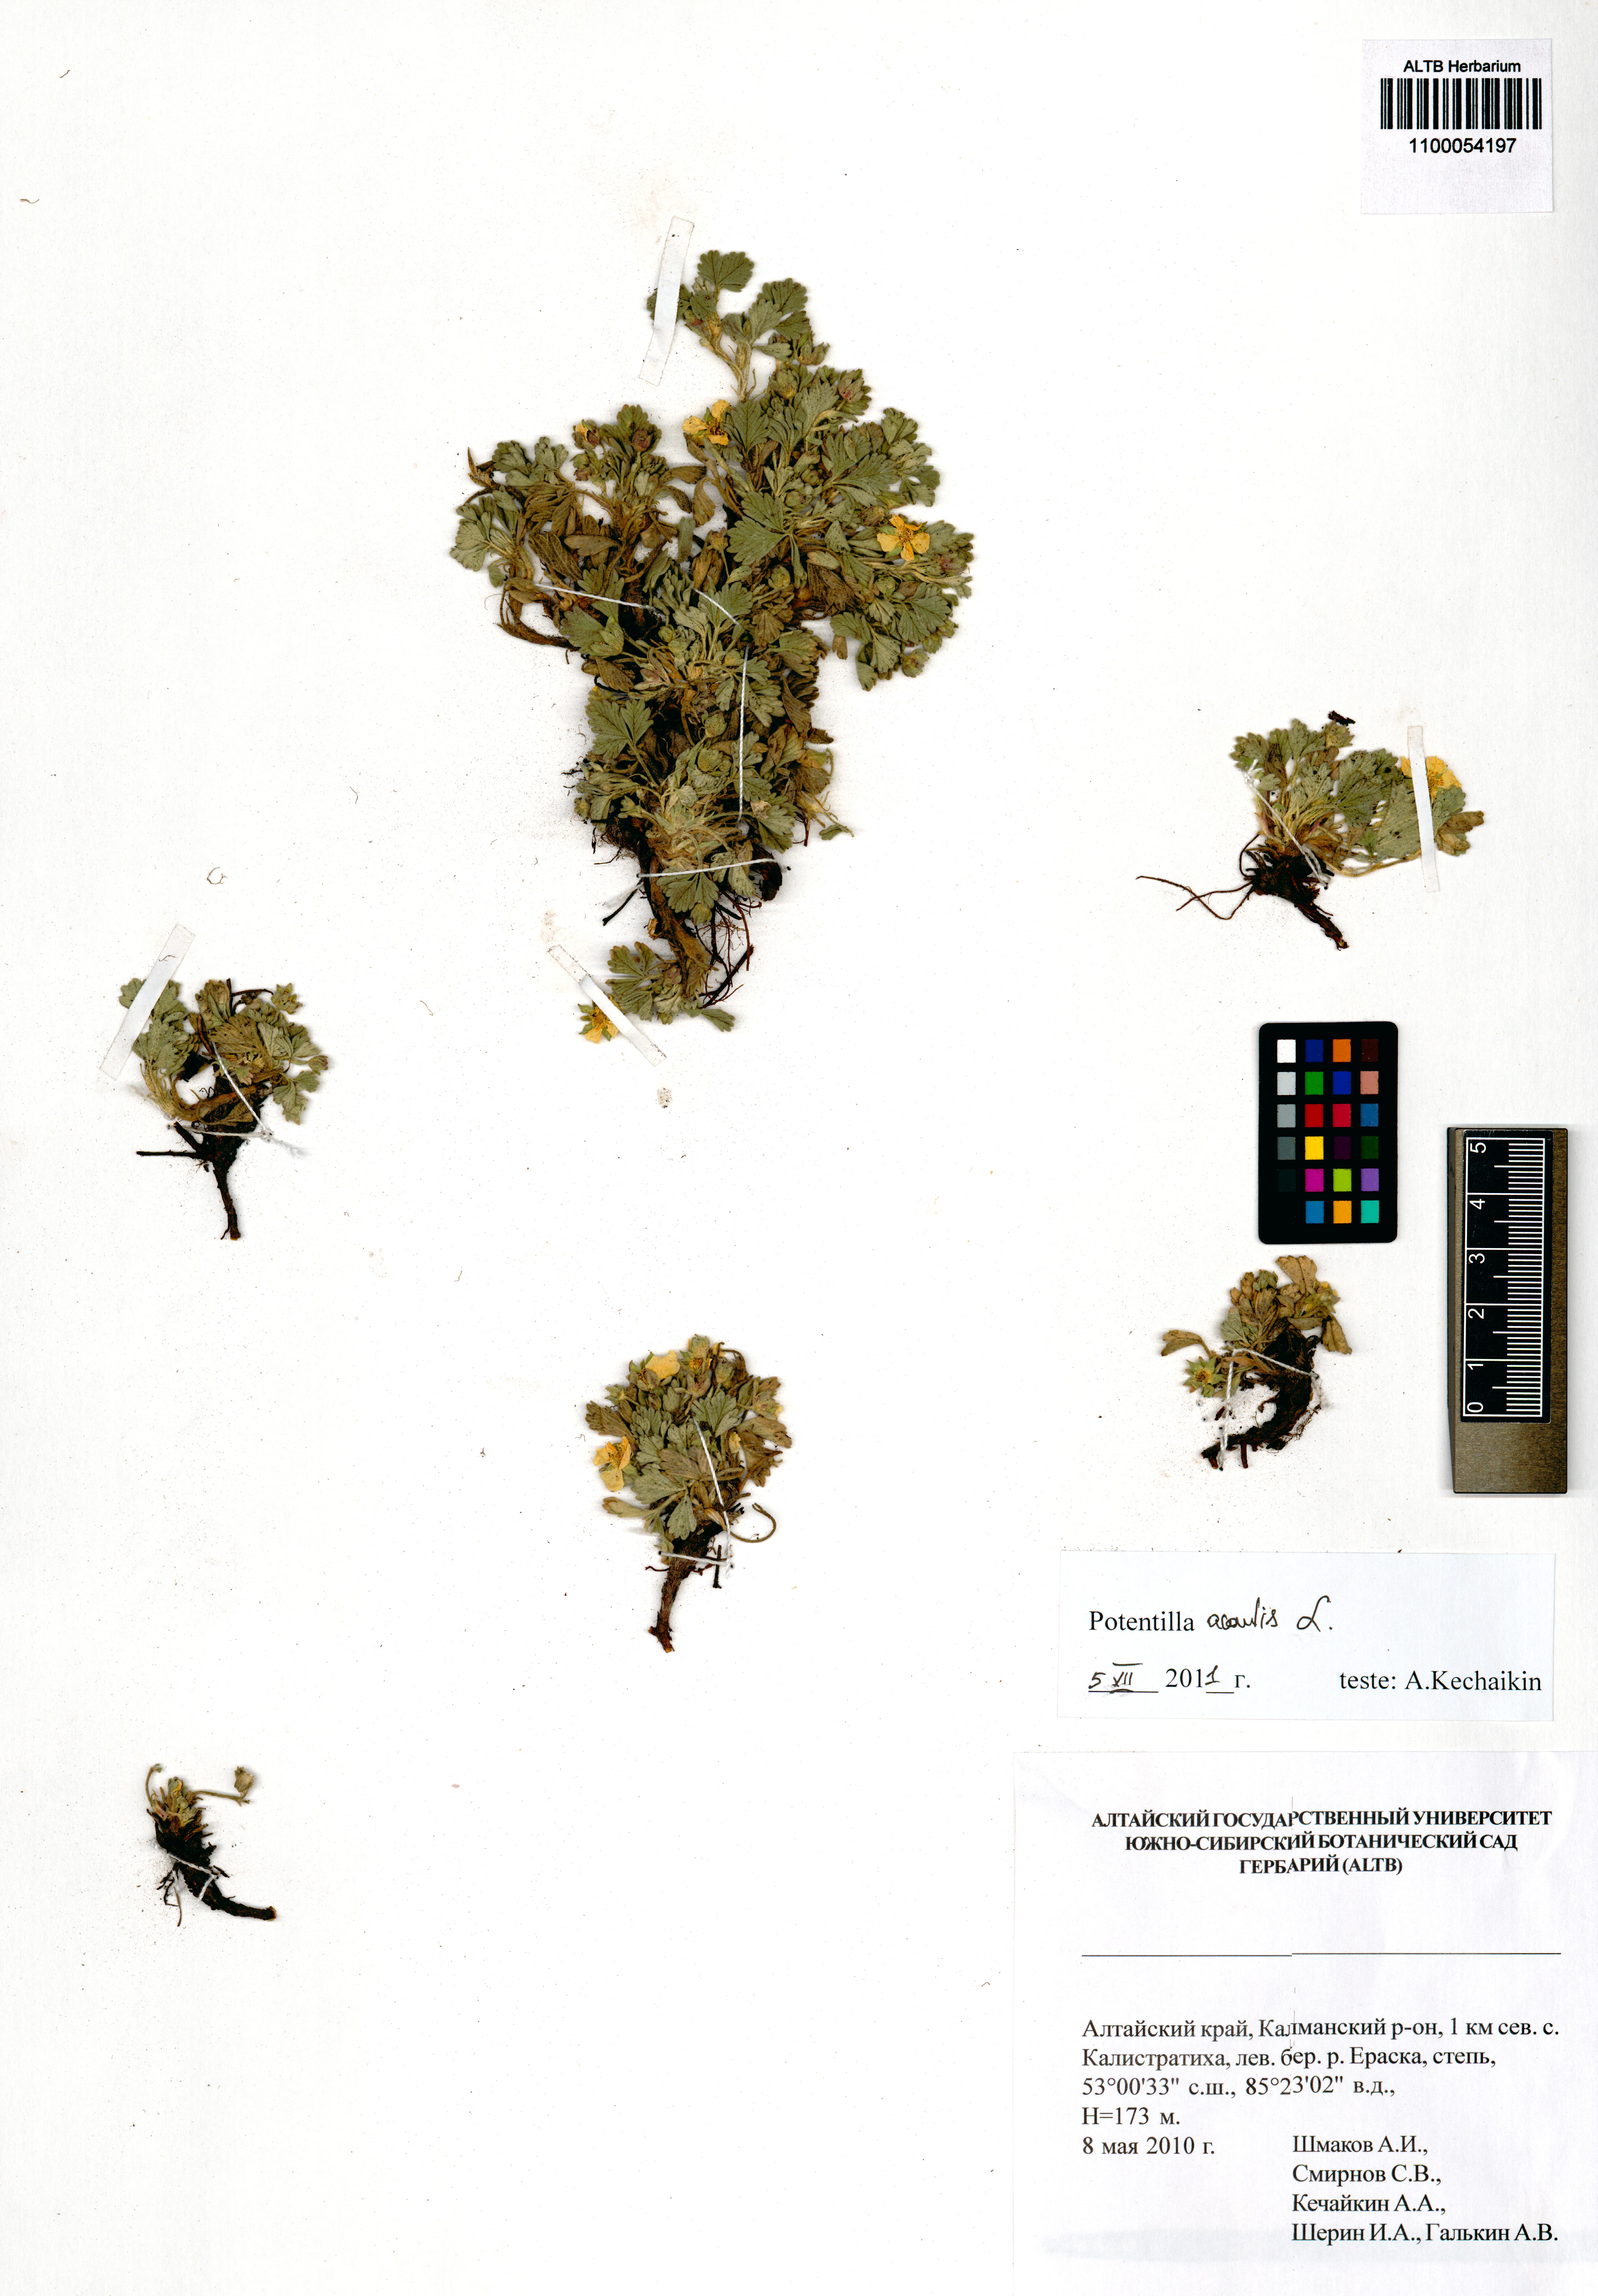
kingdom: Plantae
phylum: Tracheophyta
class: Magnoliopsida
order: Rosales
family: Rosaceae
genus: Potentilla
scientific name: Potentilla acaulis
